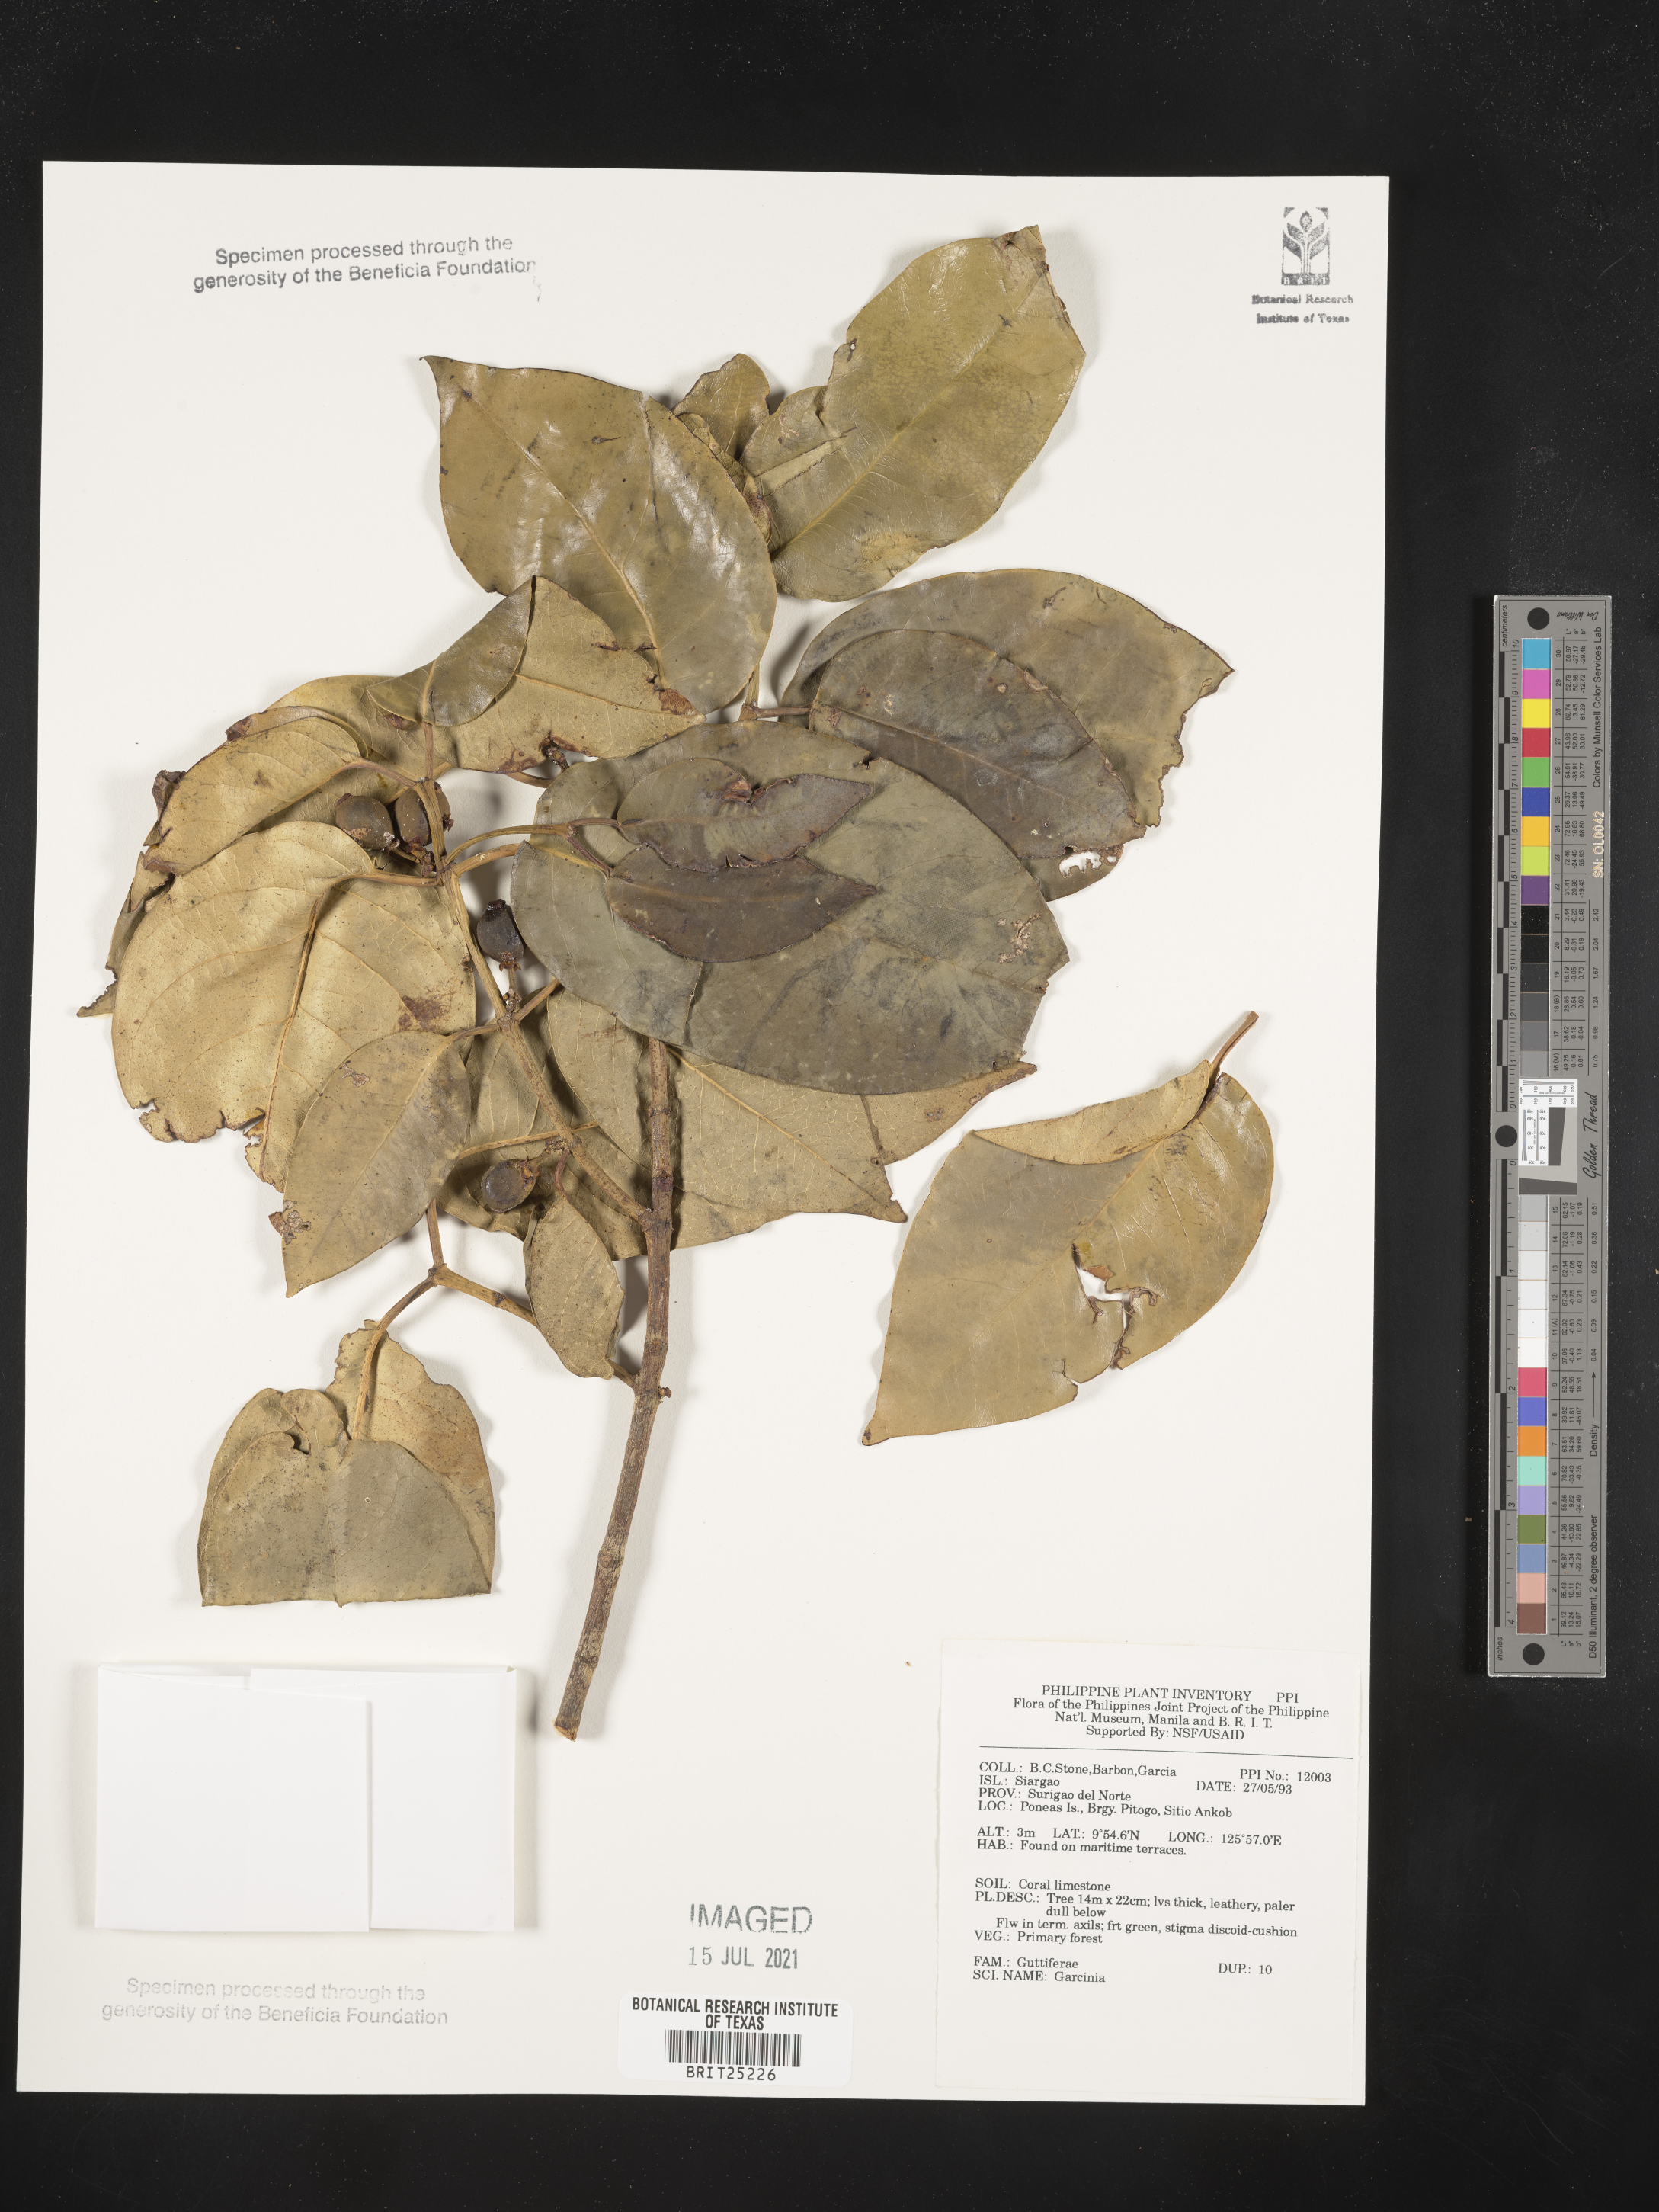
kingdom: Plantae
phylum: Tracheophyta
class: Magnoliopsida
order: Malpighiales
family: Clusiaceae
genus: Garcinia
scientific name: Garcinia
